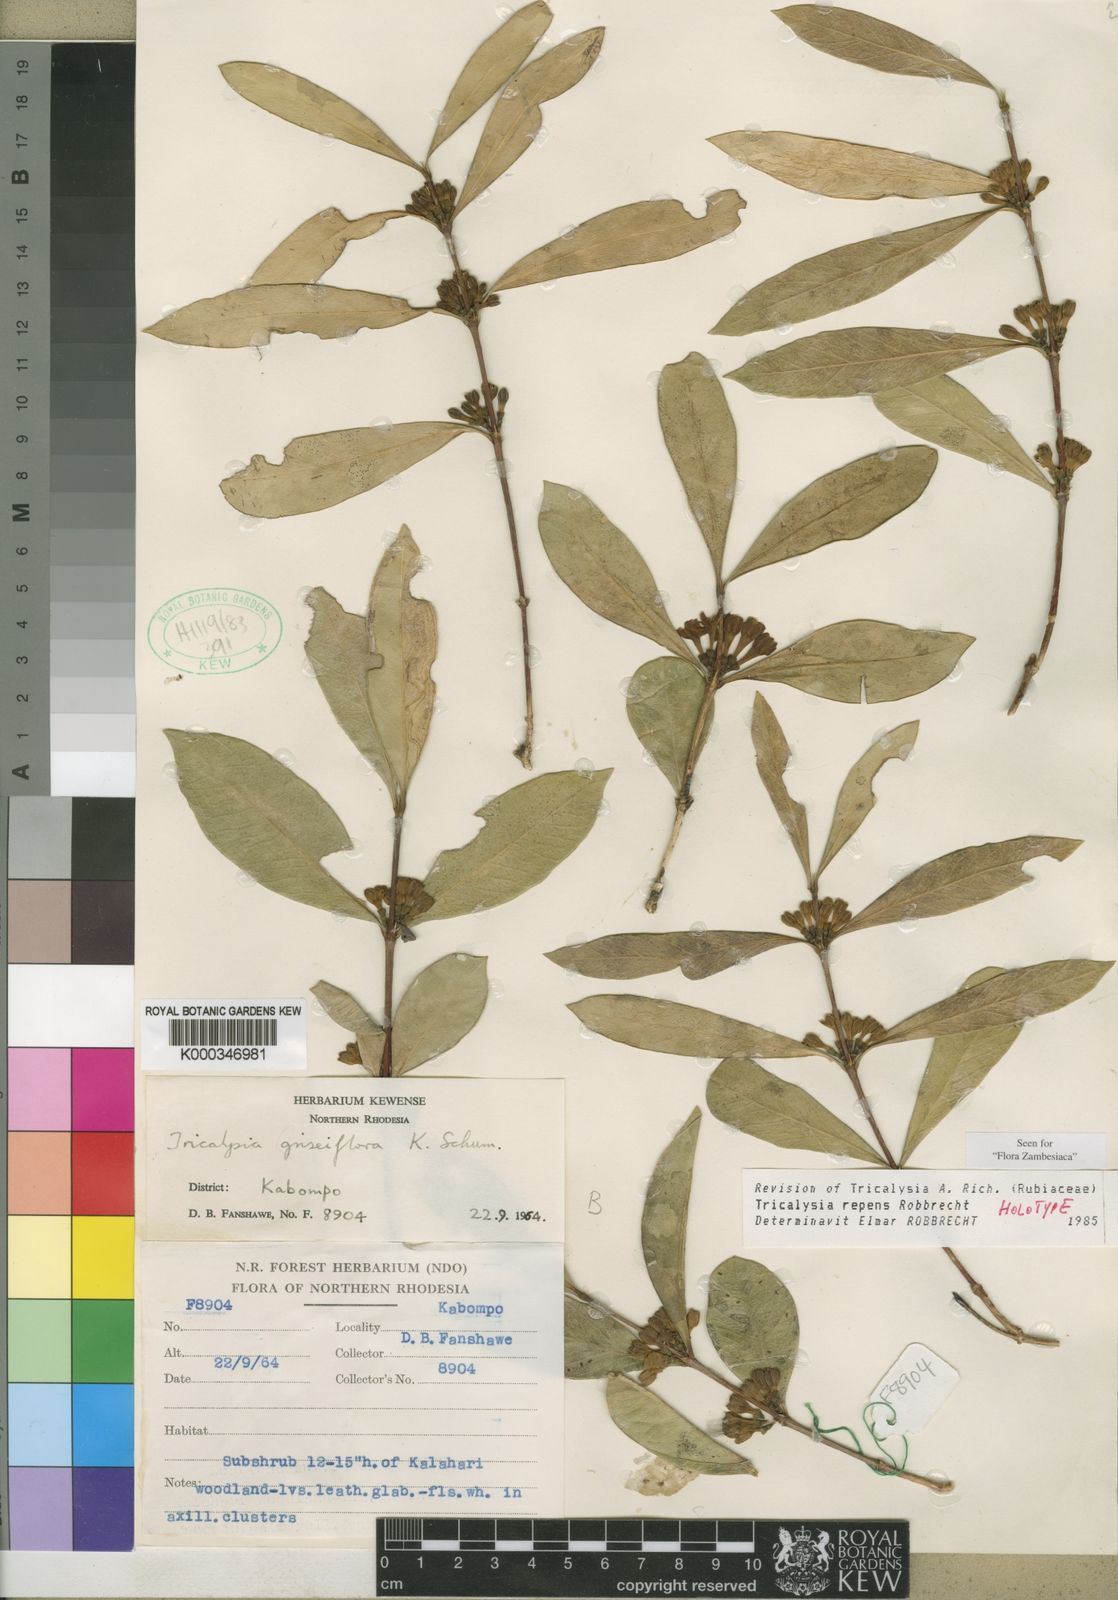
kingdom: Plantae
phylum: Tracheophyta
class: Magnoliopsida
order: Gentianales
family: Rubiaceae
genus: Tricalysia
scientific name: Tricalysia repens
